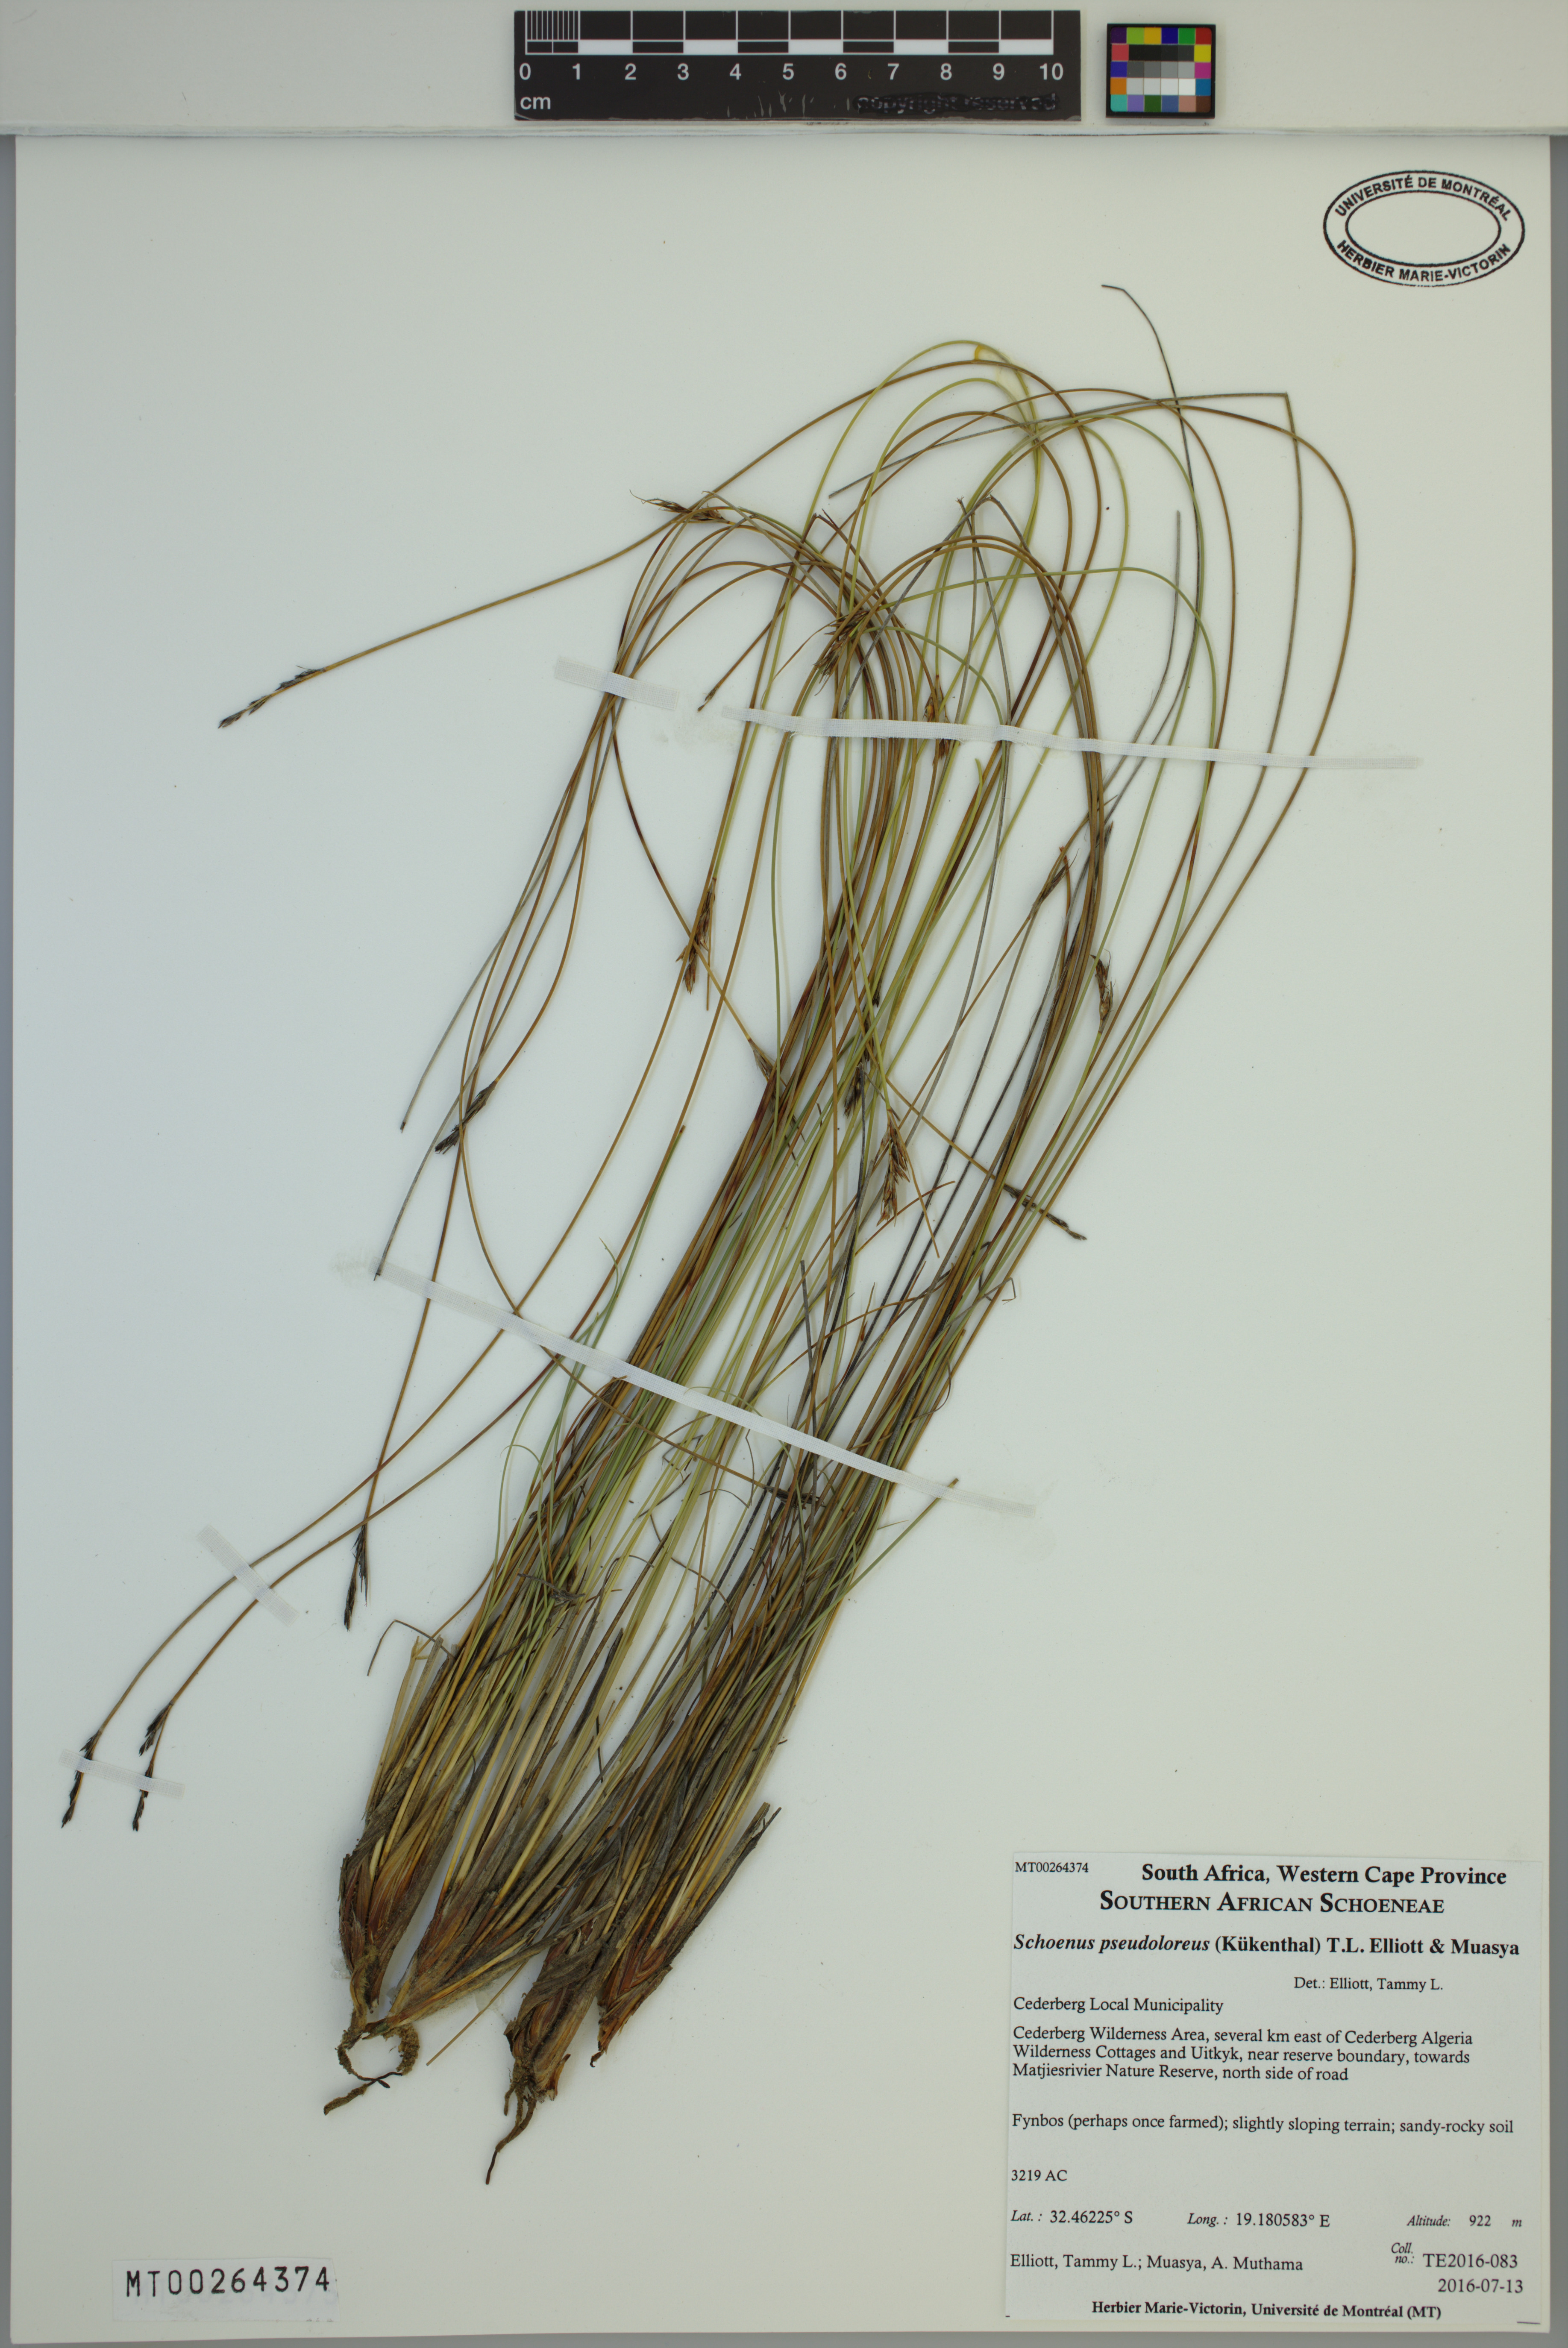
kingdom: Plantae
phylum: Tracheophyta
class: Liliopsida
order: Poales
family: Cyperaceae
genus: Schoenus
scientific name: Schoenus pseudoloreus
